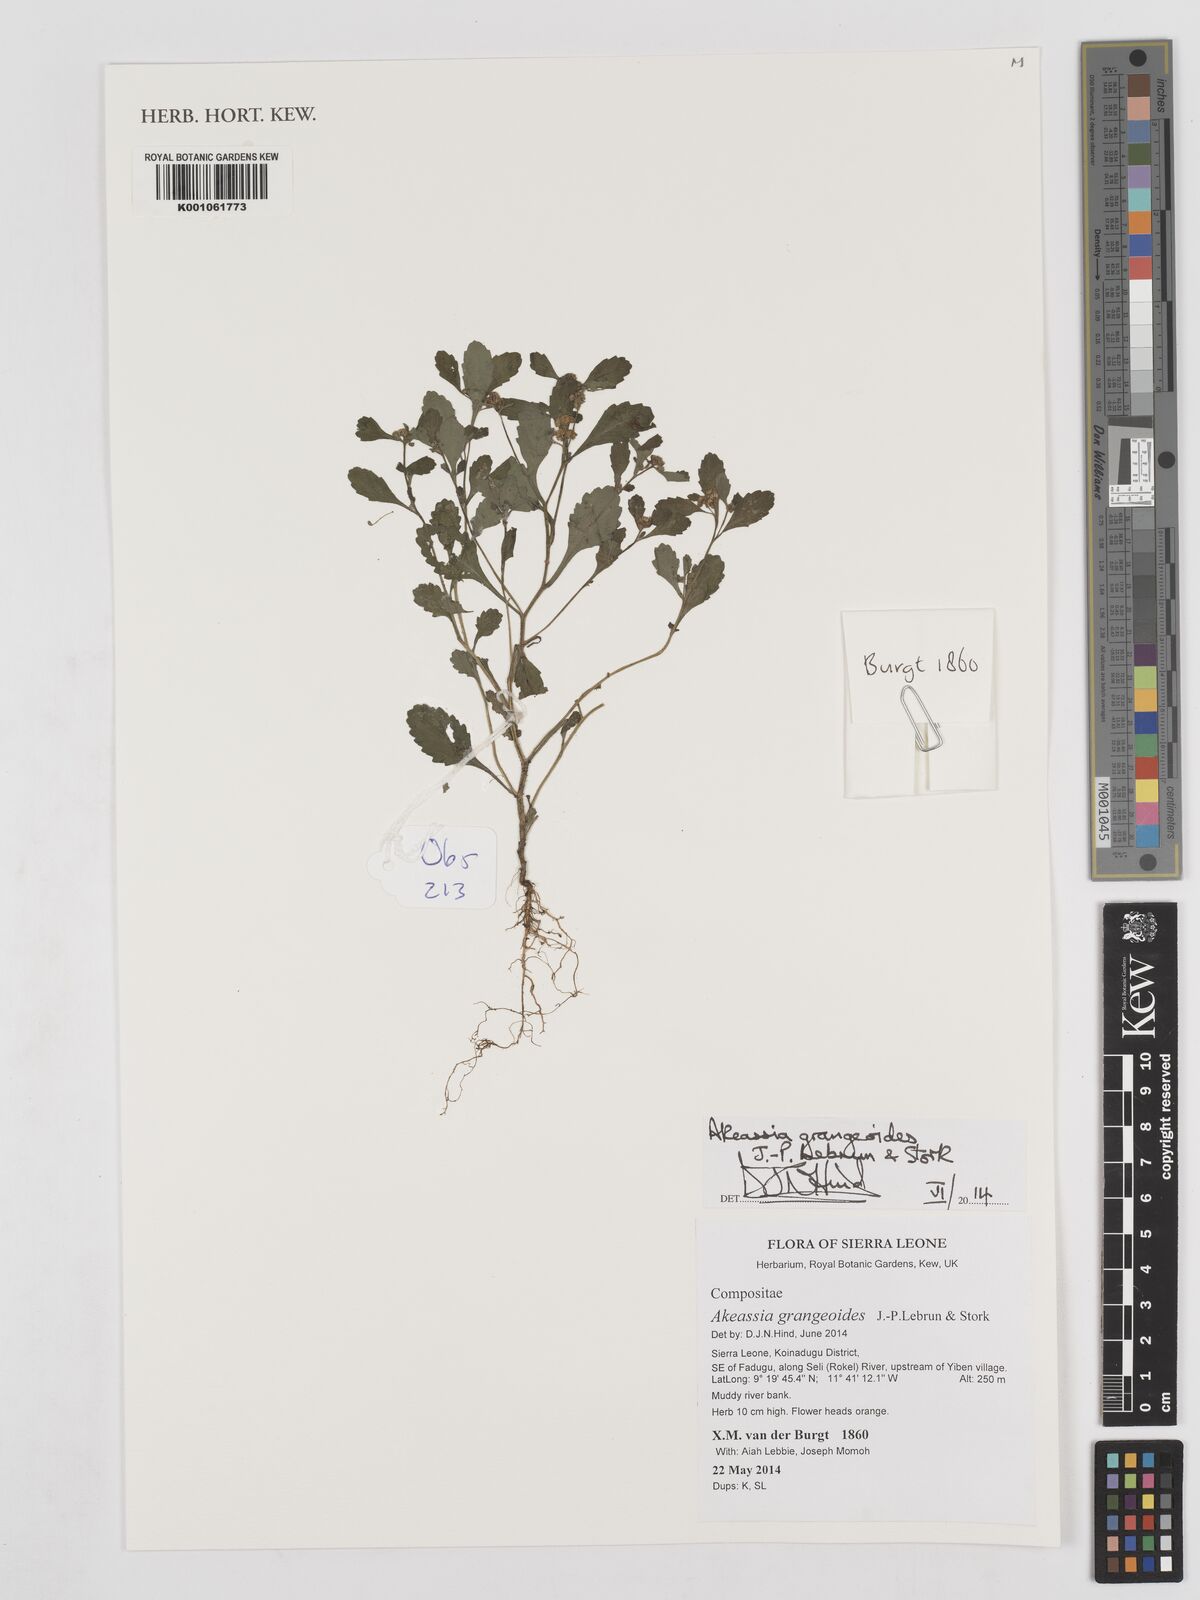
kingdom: Plantae
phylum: Tracheophyta
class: Magnoliopsida
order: Asterales
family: Asteraceae
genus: Grangea
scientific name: Grangea grangeoides
